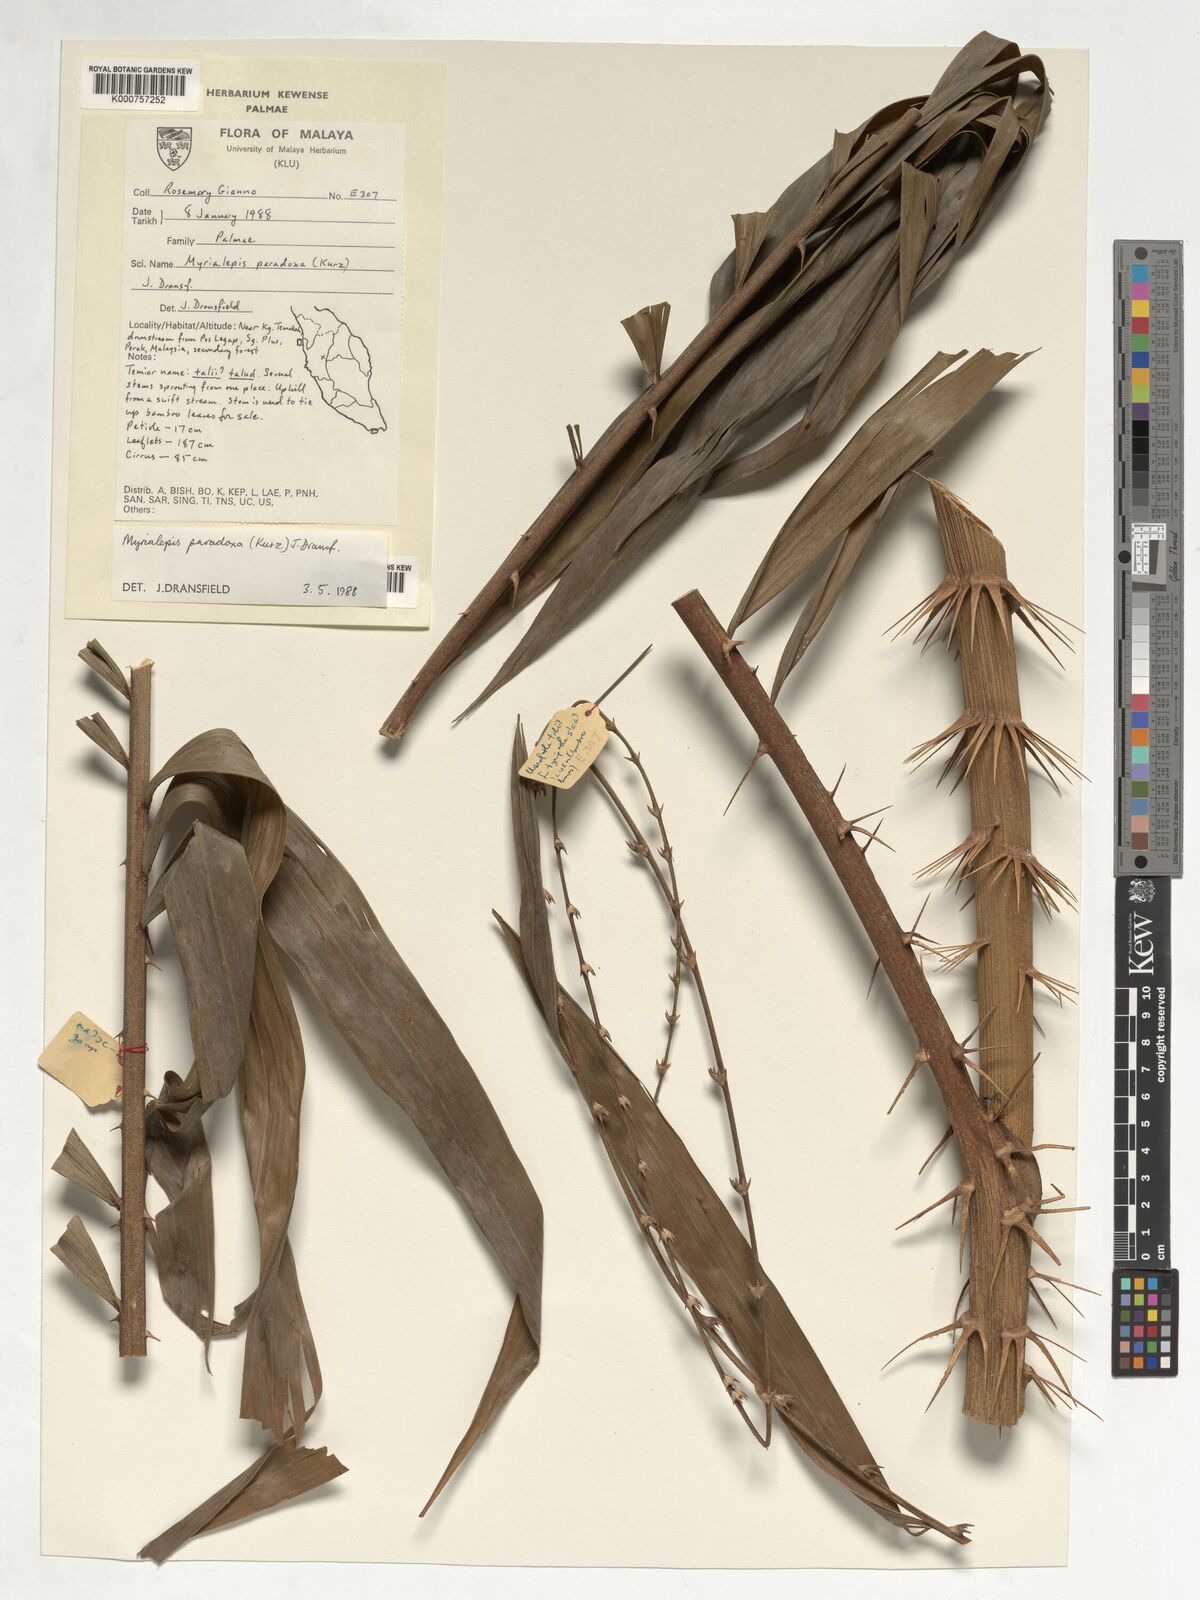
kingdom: Plantae
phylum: Tracheophyta
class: Liliopsida
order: Arecales
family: Arecaceae
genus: Myrialepis
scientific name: Myrialepis paradoxa
